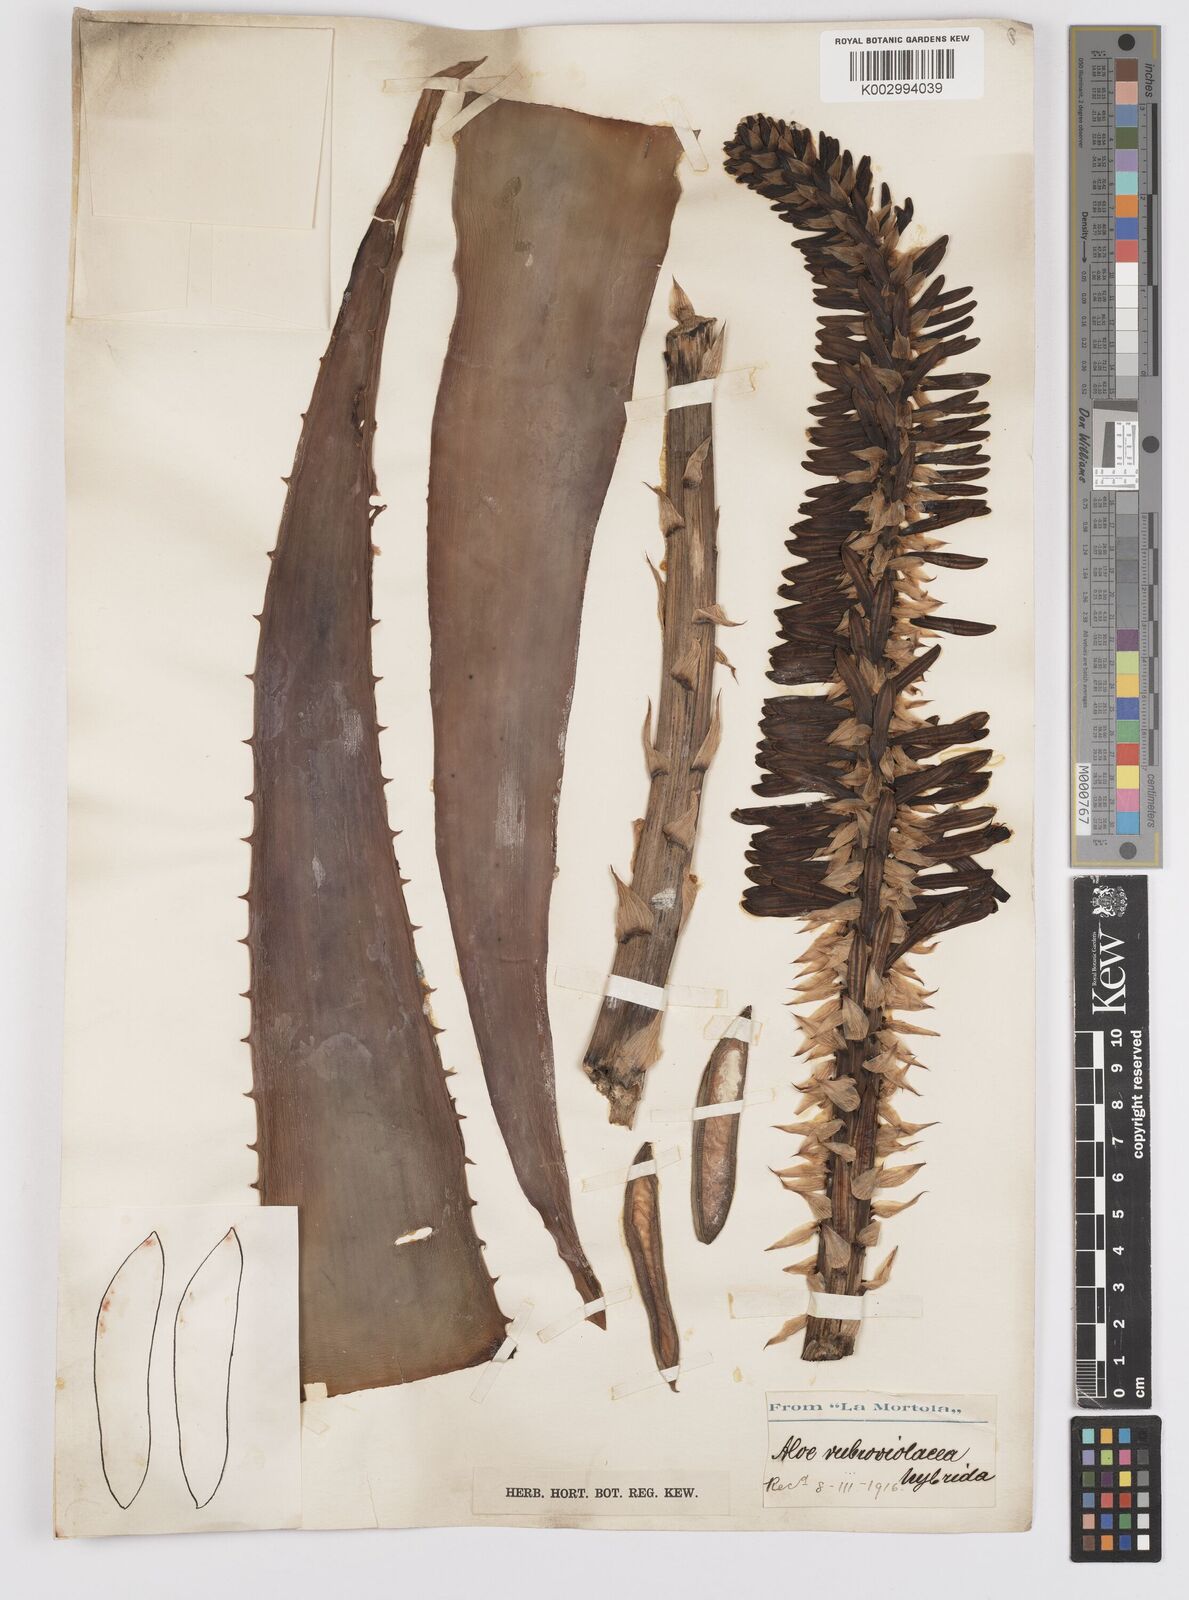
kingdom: Plantae
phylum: Tracheophyta
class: Liliopsida
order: Asparagales
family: Asphodelaceae
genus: Aloe
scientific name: Aloe rubroviolacea
